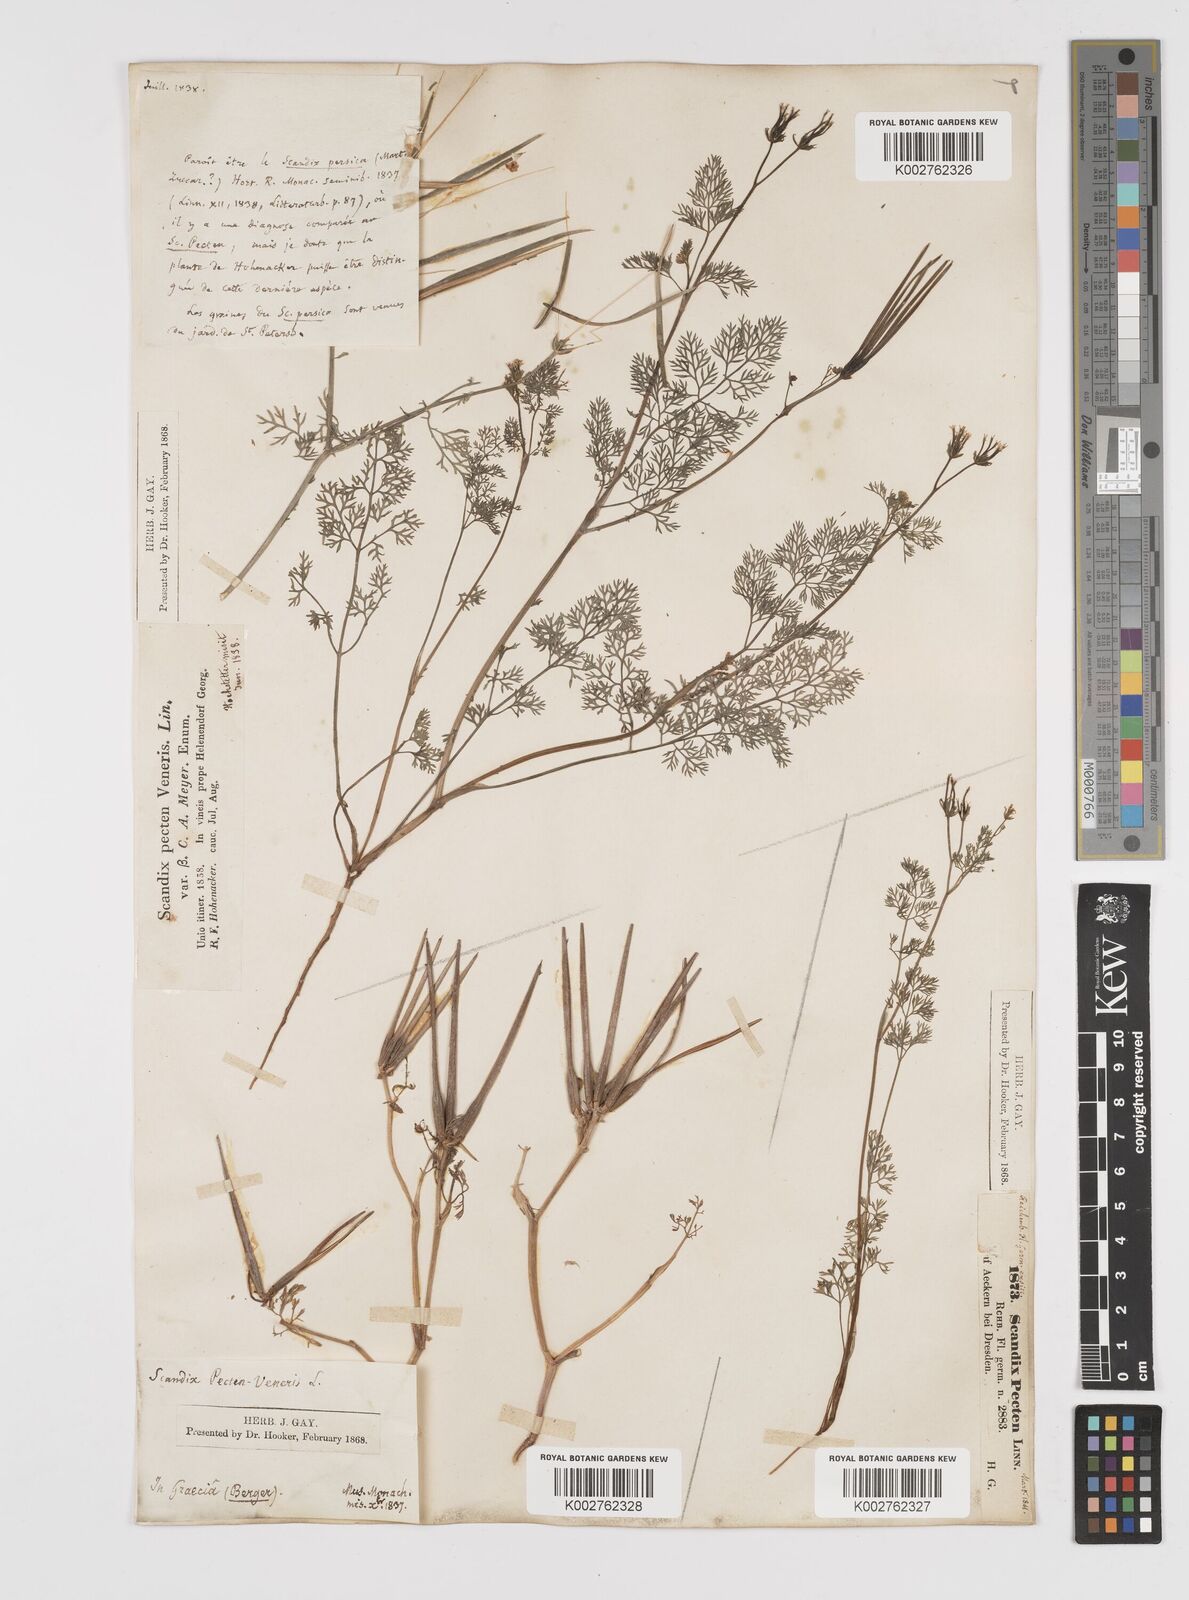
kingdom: Plantae
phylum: Tracheophyta
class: Magnoliopsida
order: Apiales
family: Apiaceae
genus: Scandix
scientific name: Scandix pecten-veneris
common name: Shepherd's-needle
